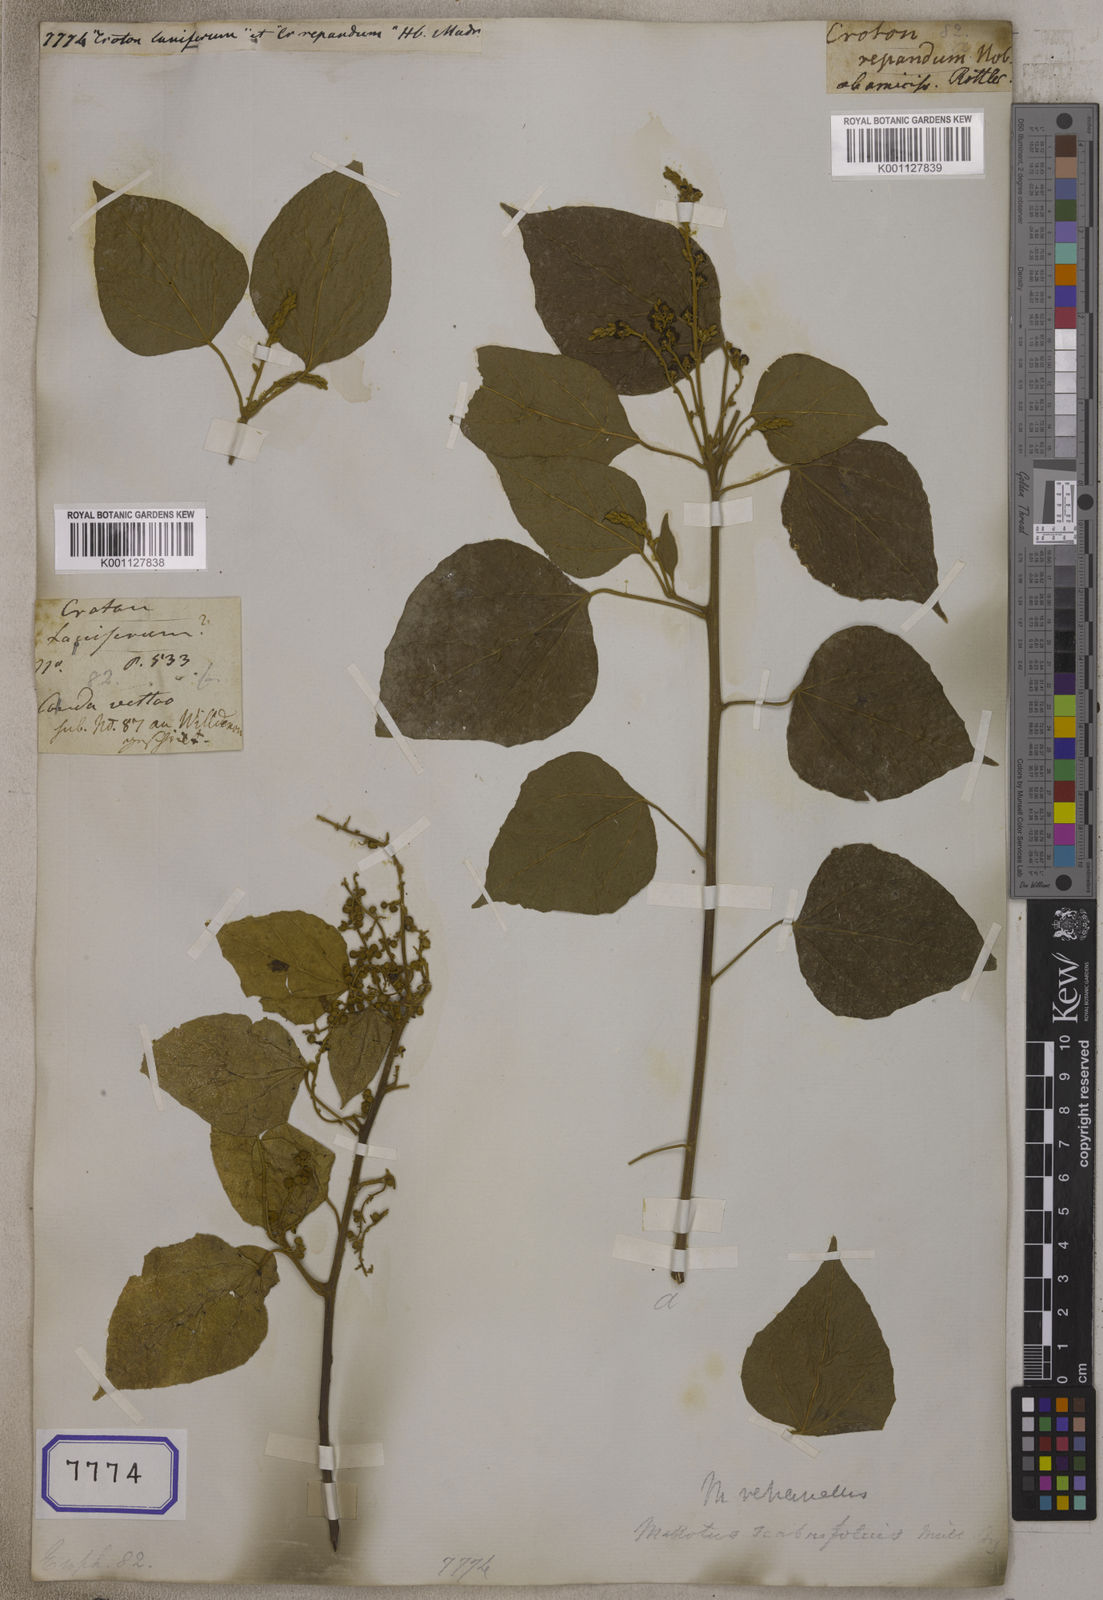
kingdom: Plantae
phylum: Tracheophyta
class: Magnoliopsida
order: Malpighiales
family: Euphorbiaceae
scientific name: Euphorbiaceae
